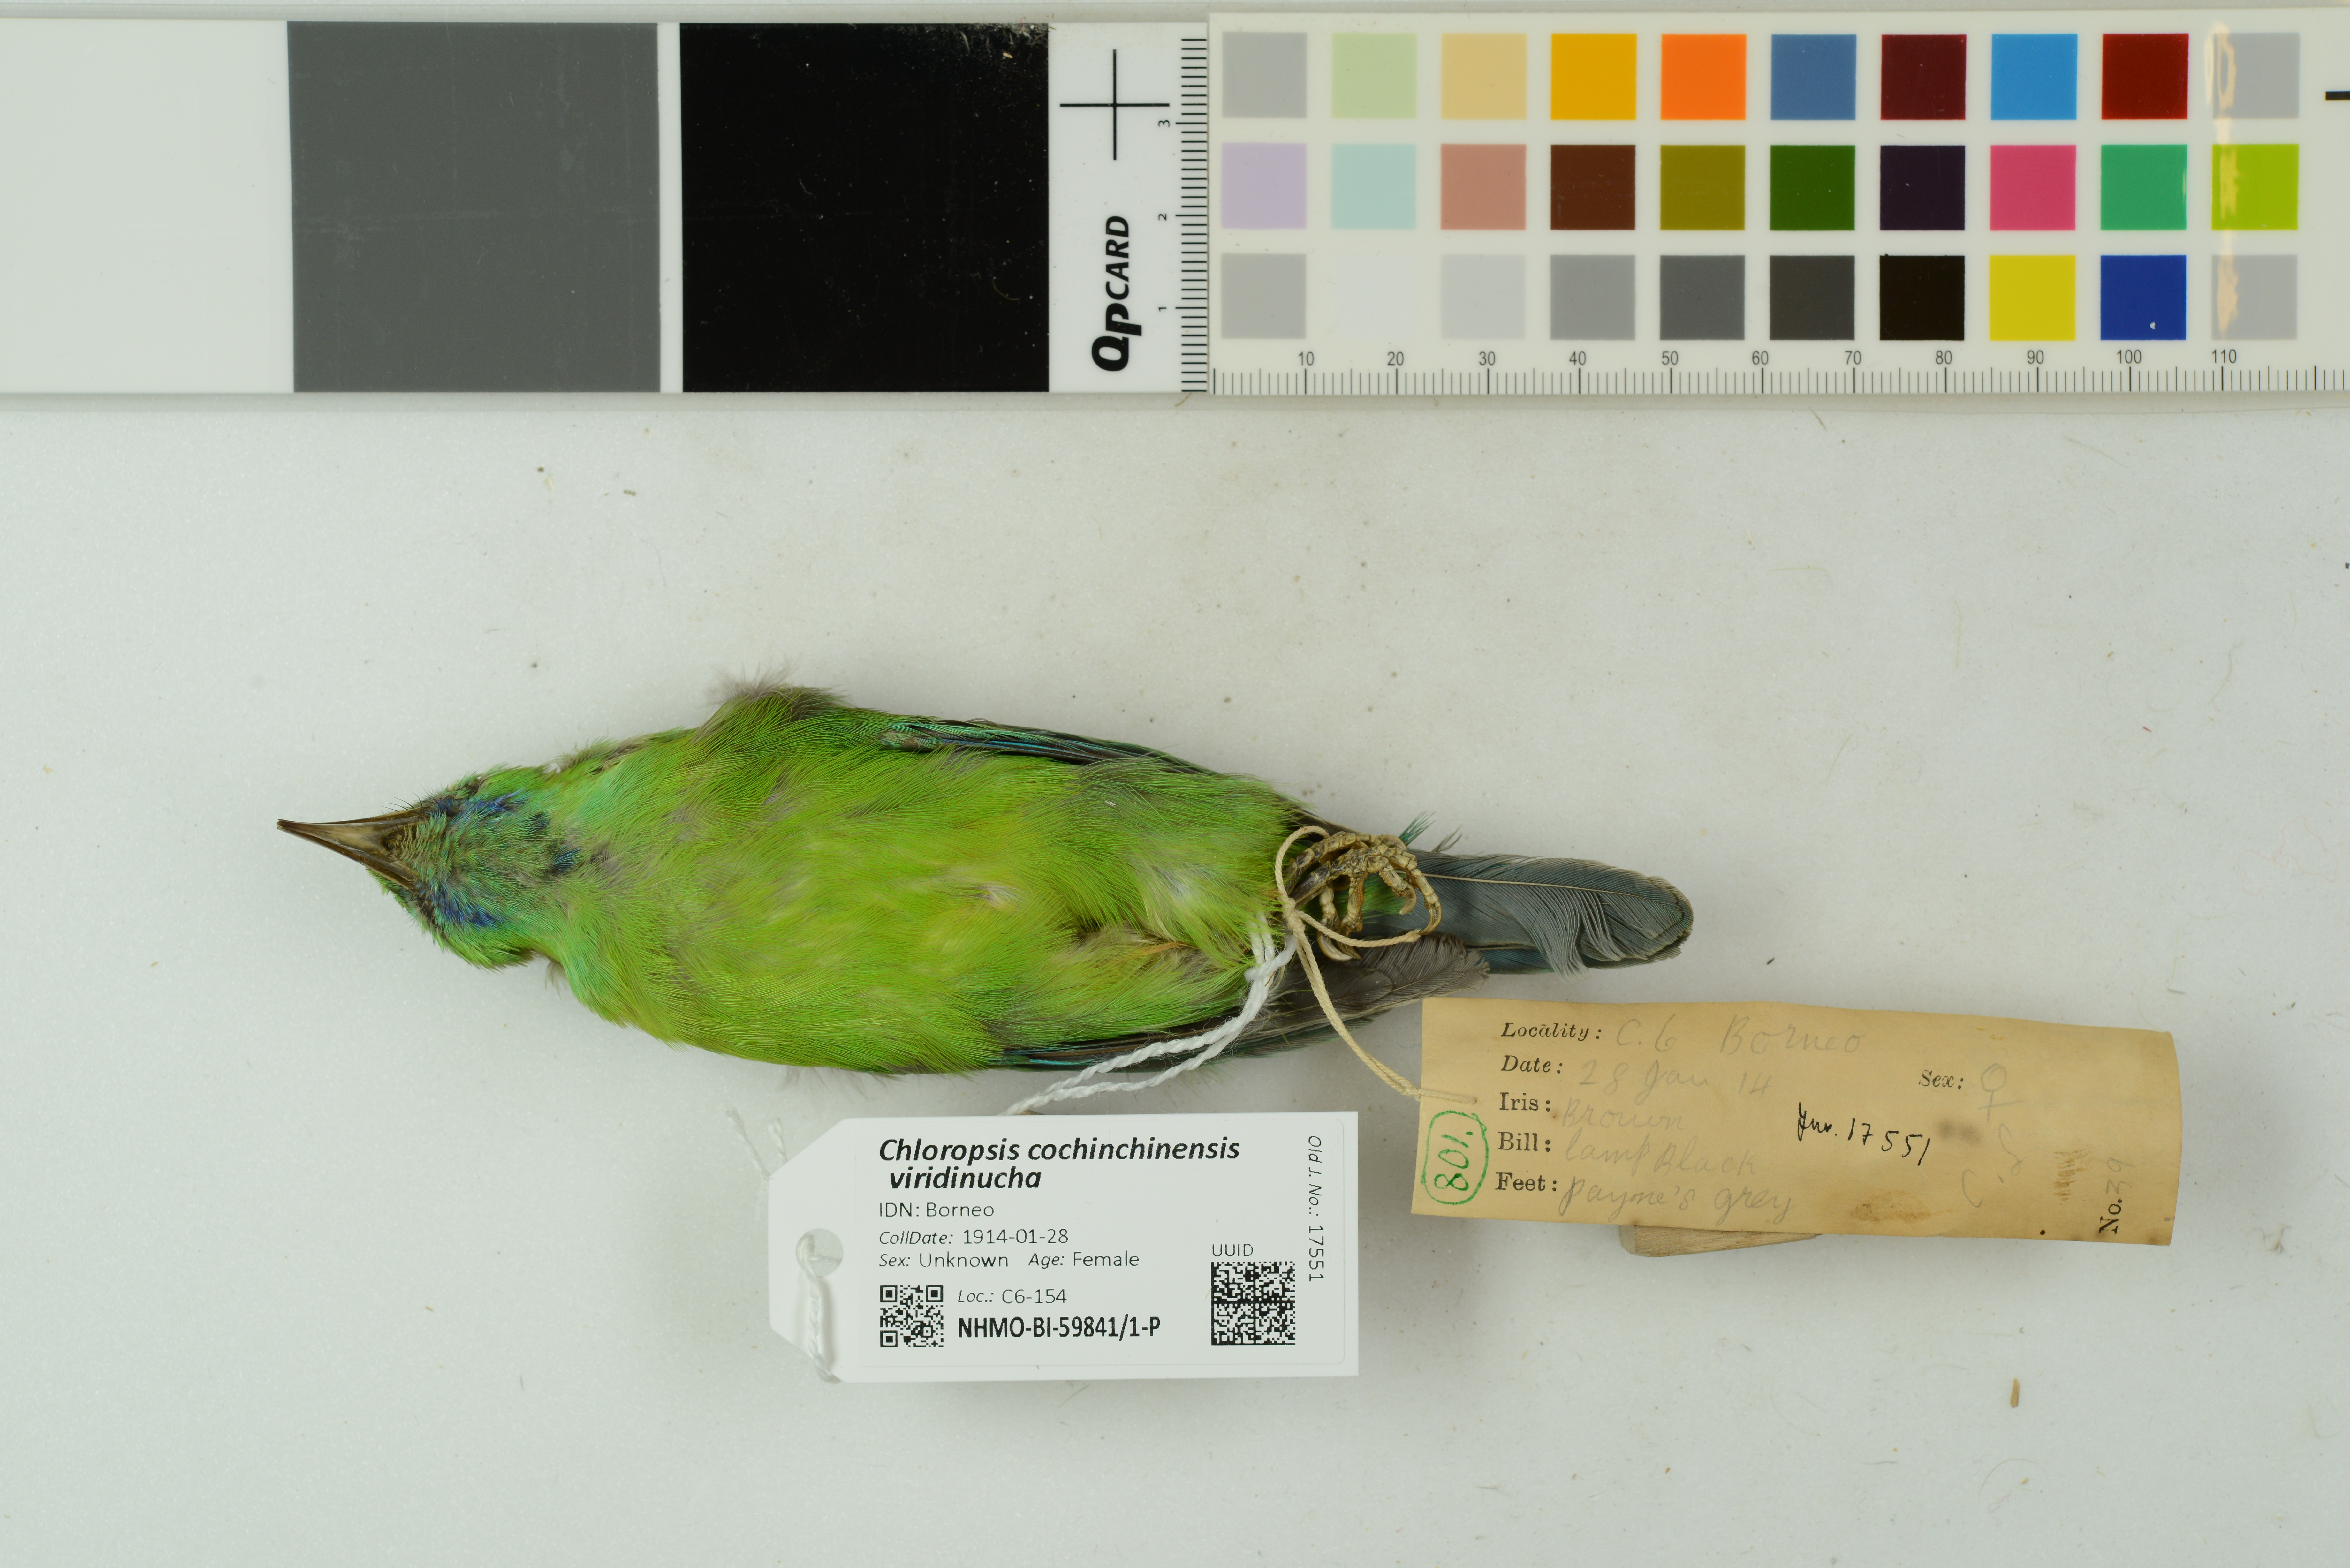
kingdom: Animalia
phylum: Chordata
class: Aves
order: Passeriformes
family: Chloropseidae
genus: Chloropsis
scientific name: Chloropsis cochinchinensis
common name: Blue-winged leafbird
